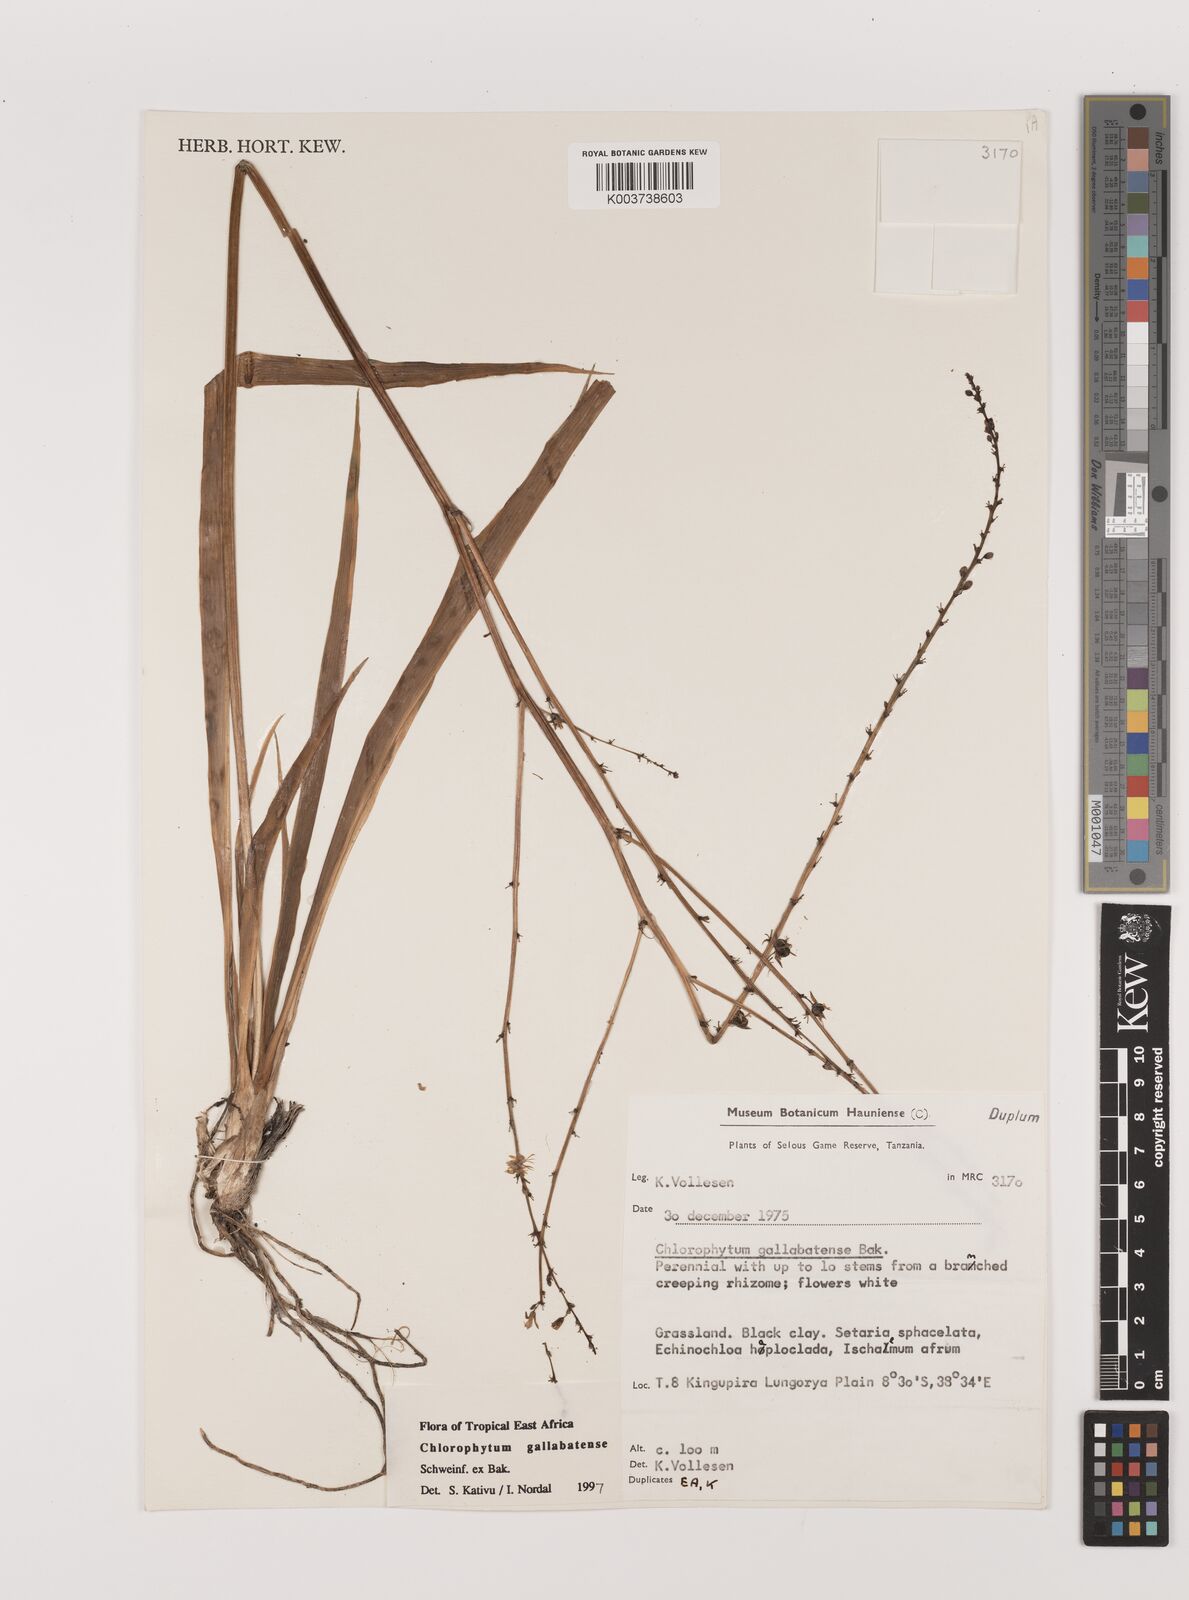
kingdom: Plantae
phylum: Tracheophyta
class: Liliopsida
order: Asparagales
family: Asparagaceae
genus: Chlorophytum
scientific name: Chlorophytum gallabatense
